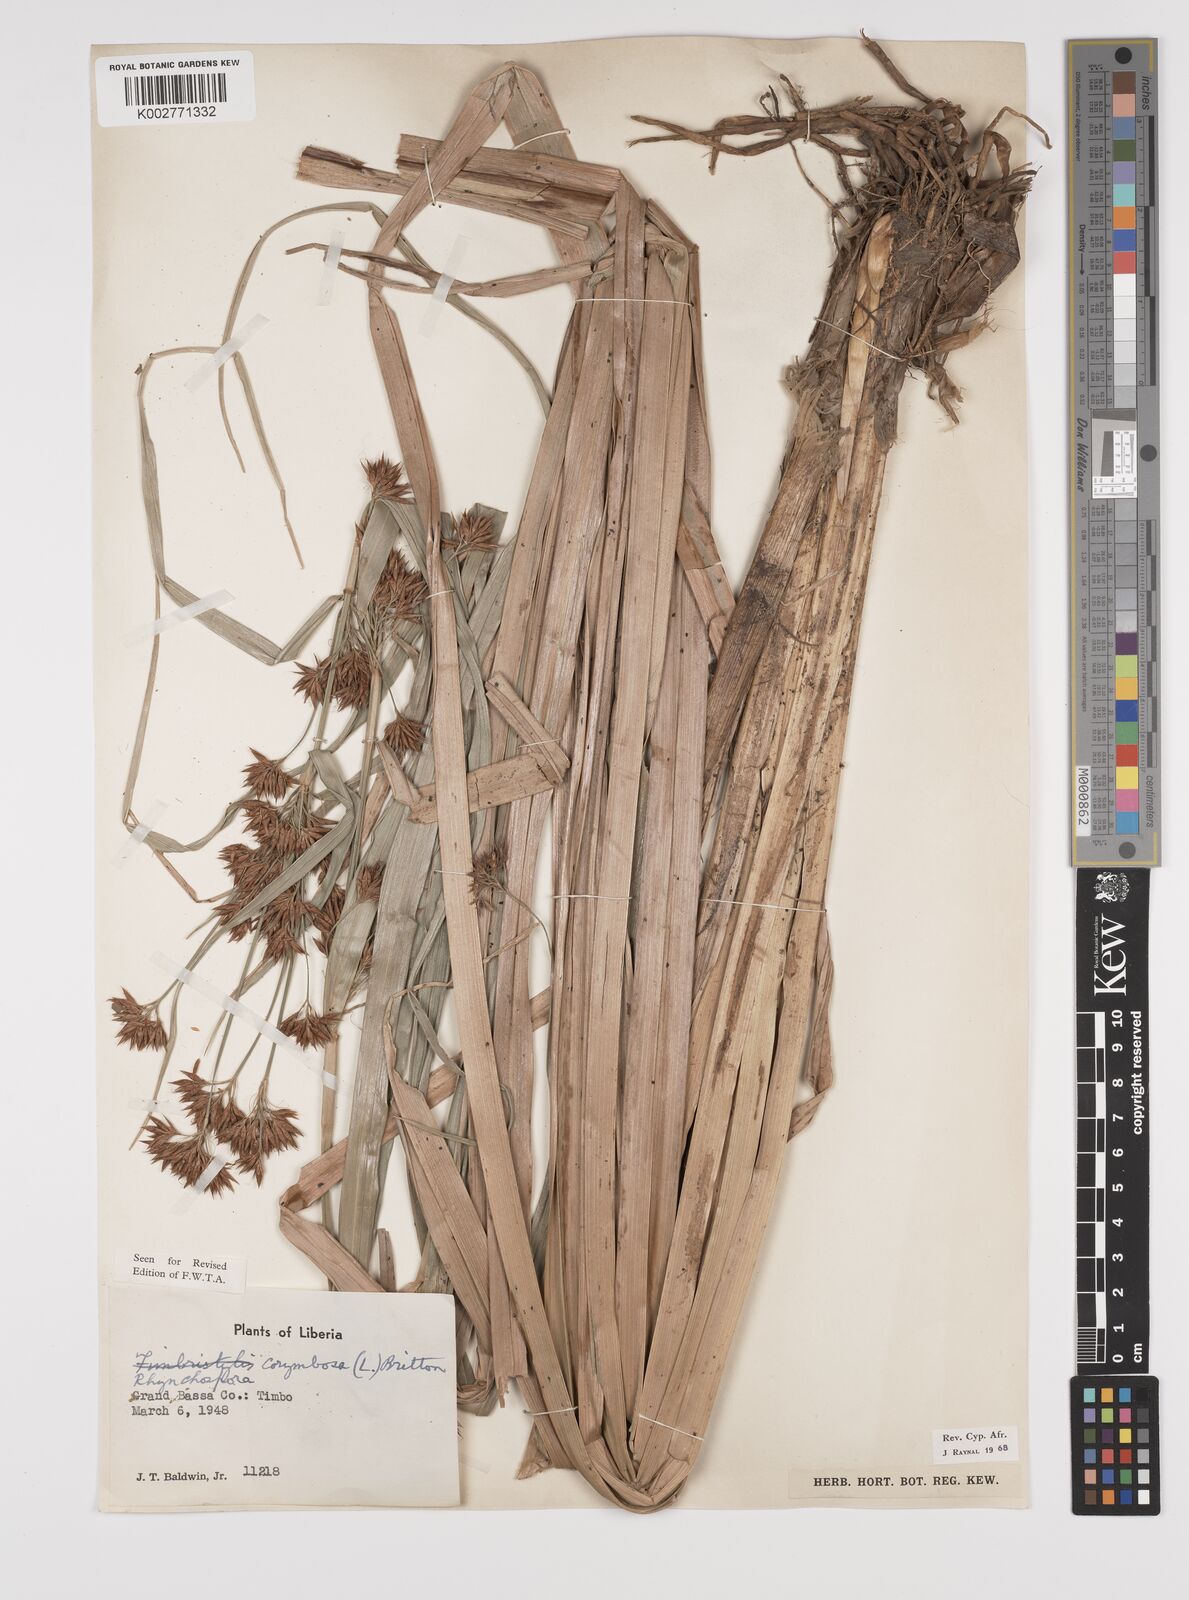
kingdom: Plantae
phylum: Tracheophyta
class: Liliopsida
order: Poales
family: Cyperaceae
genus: Rhynchospora
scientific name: Rhynchospora corymbosa
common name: Golden beak sedge
